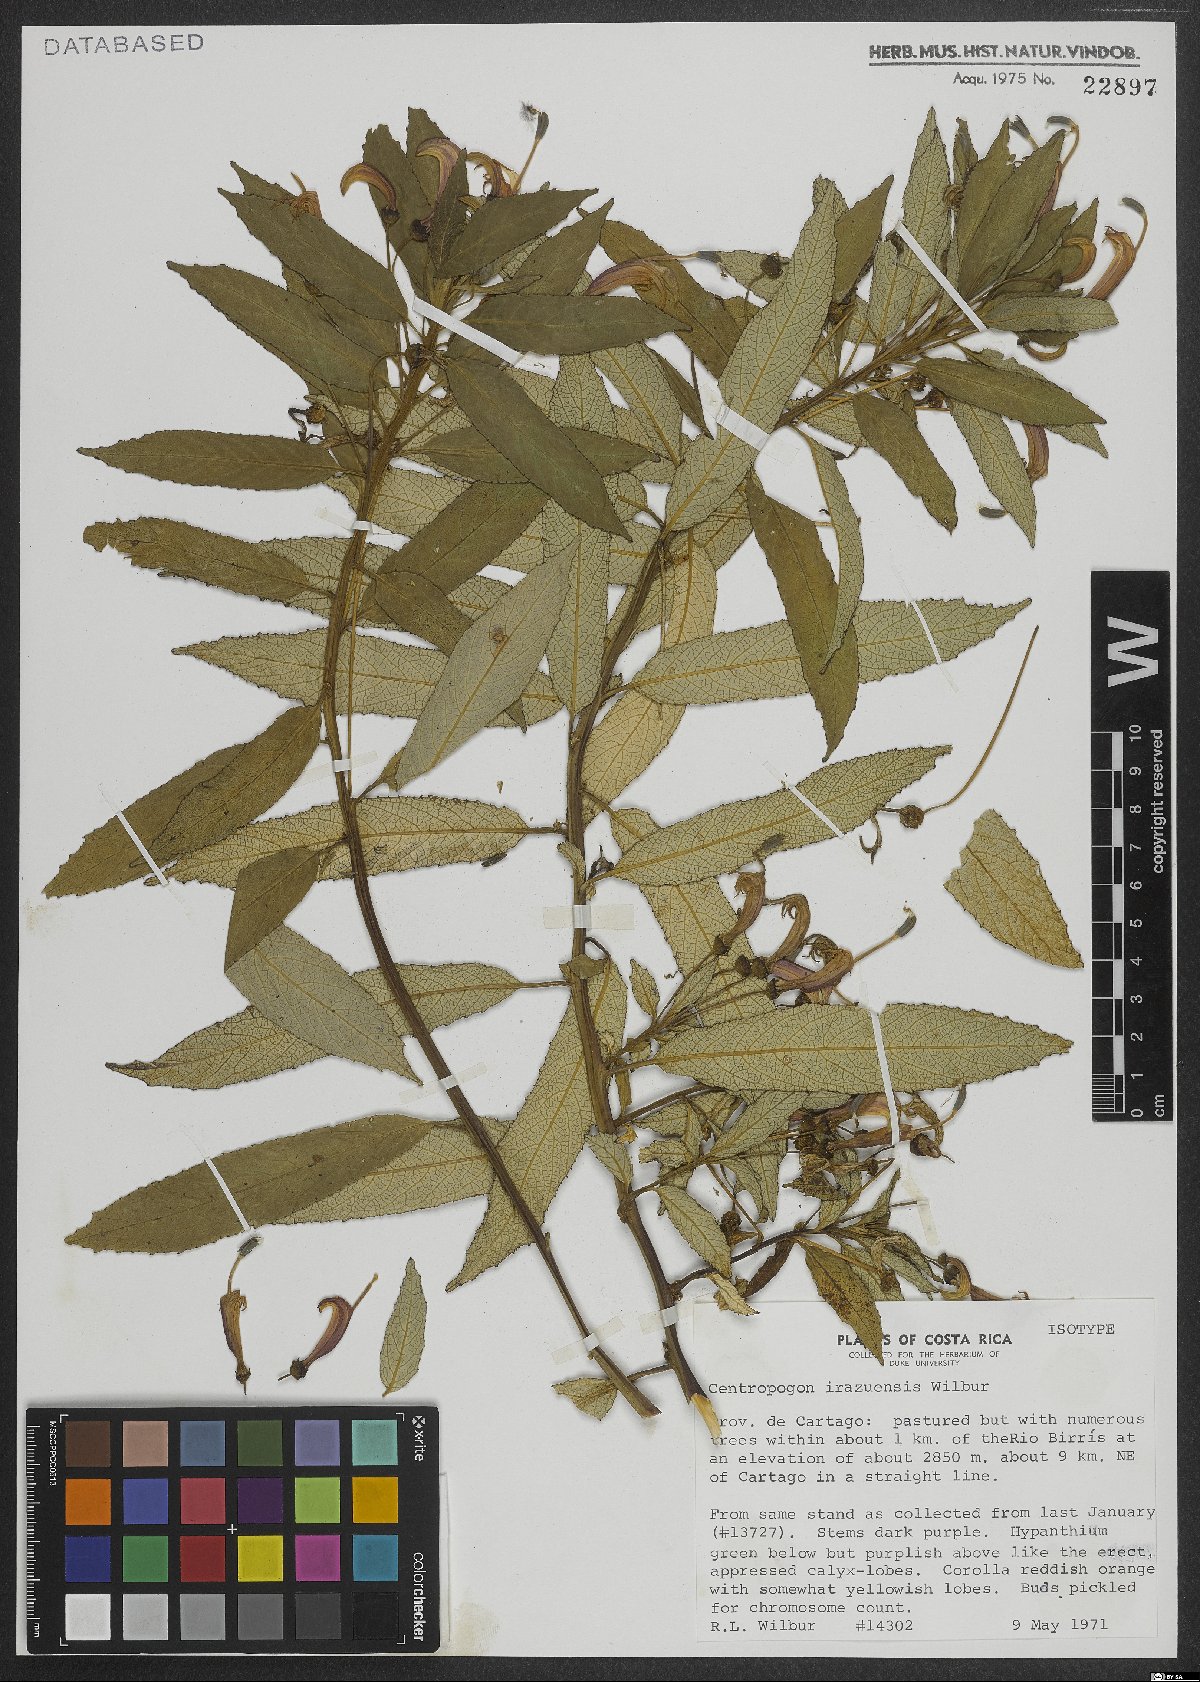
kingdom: Plantae
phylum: Tracheophyta
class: Magnoliopsida
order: Asterales
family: Campanulaceae
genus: Centropogon
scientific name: Centropogon valerii
